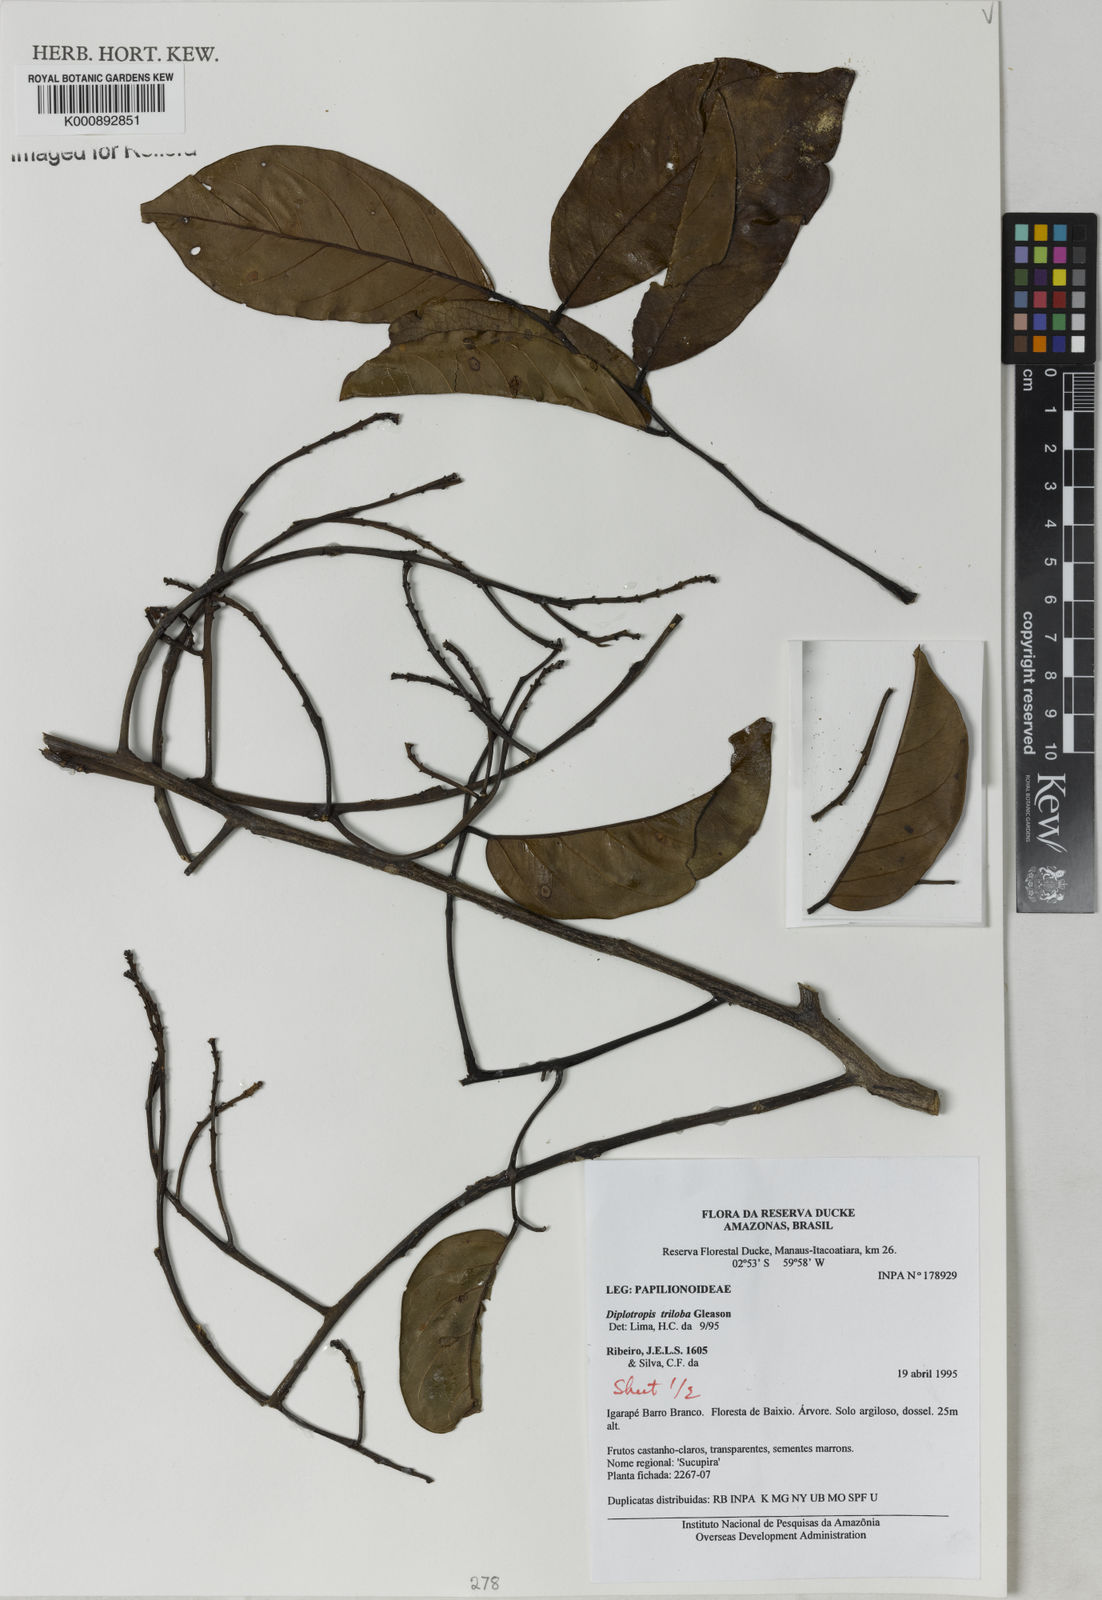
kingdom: Plantae
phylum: Tracheophyta
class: Magnoliopsida
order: Fabales
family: Fabaceae
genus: Diplotropis
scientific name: Diplotropis triloba
